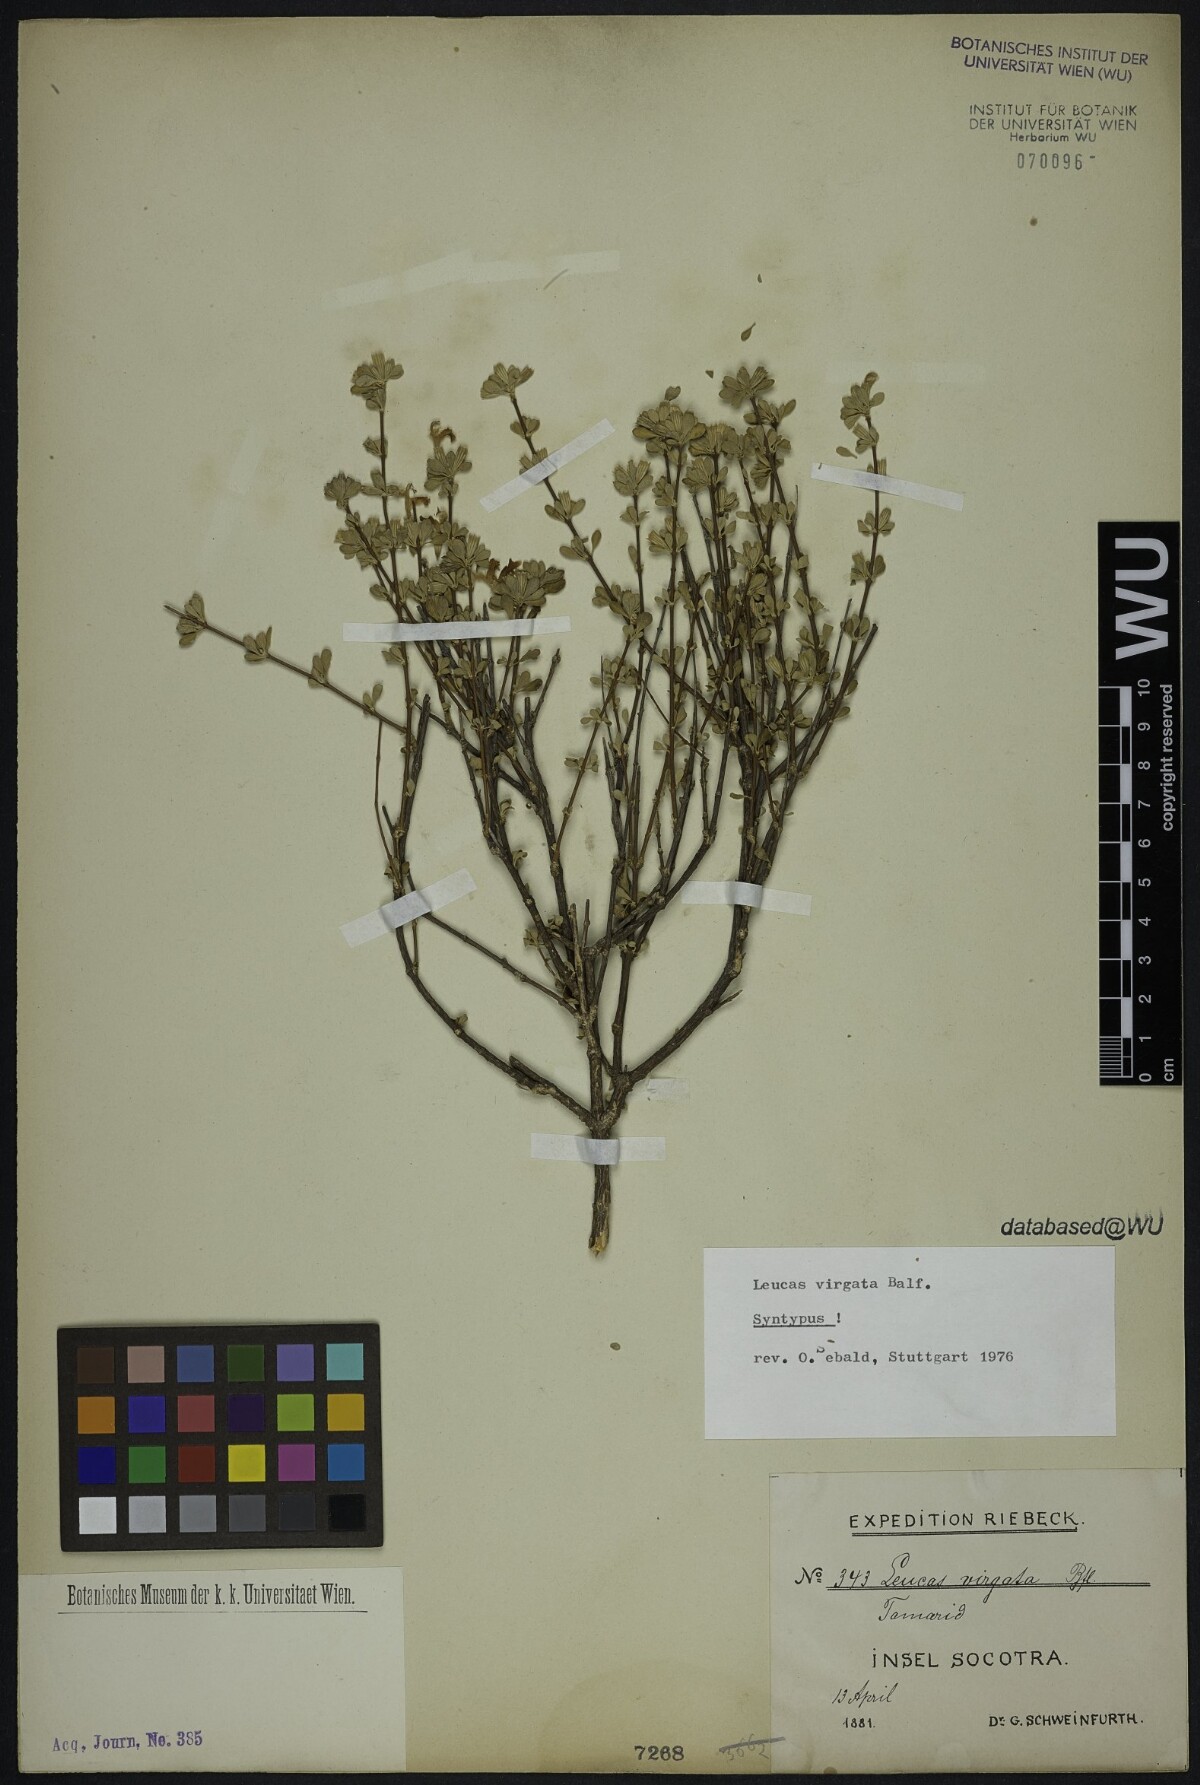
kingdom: Plantae
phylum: Tracheophyta
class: Magnoliopsida
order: Lamiales
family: Lamiaceae
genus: Leucas
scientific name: Leucas virgata
